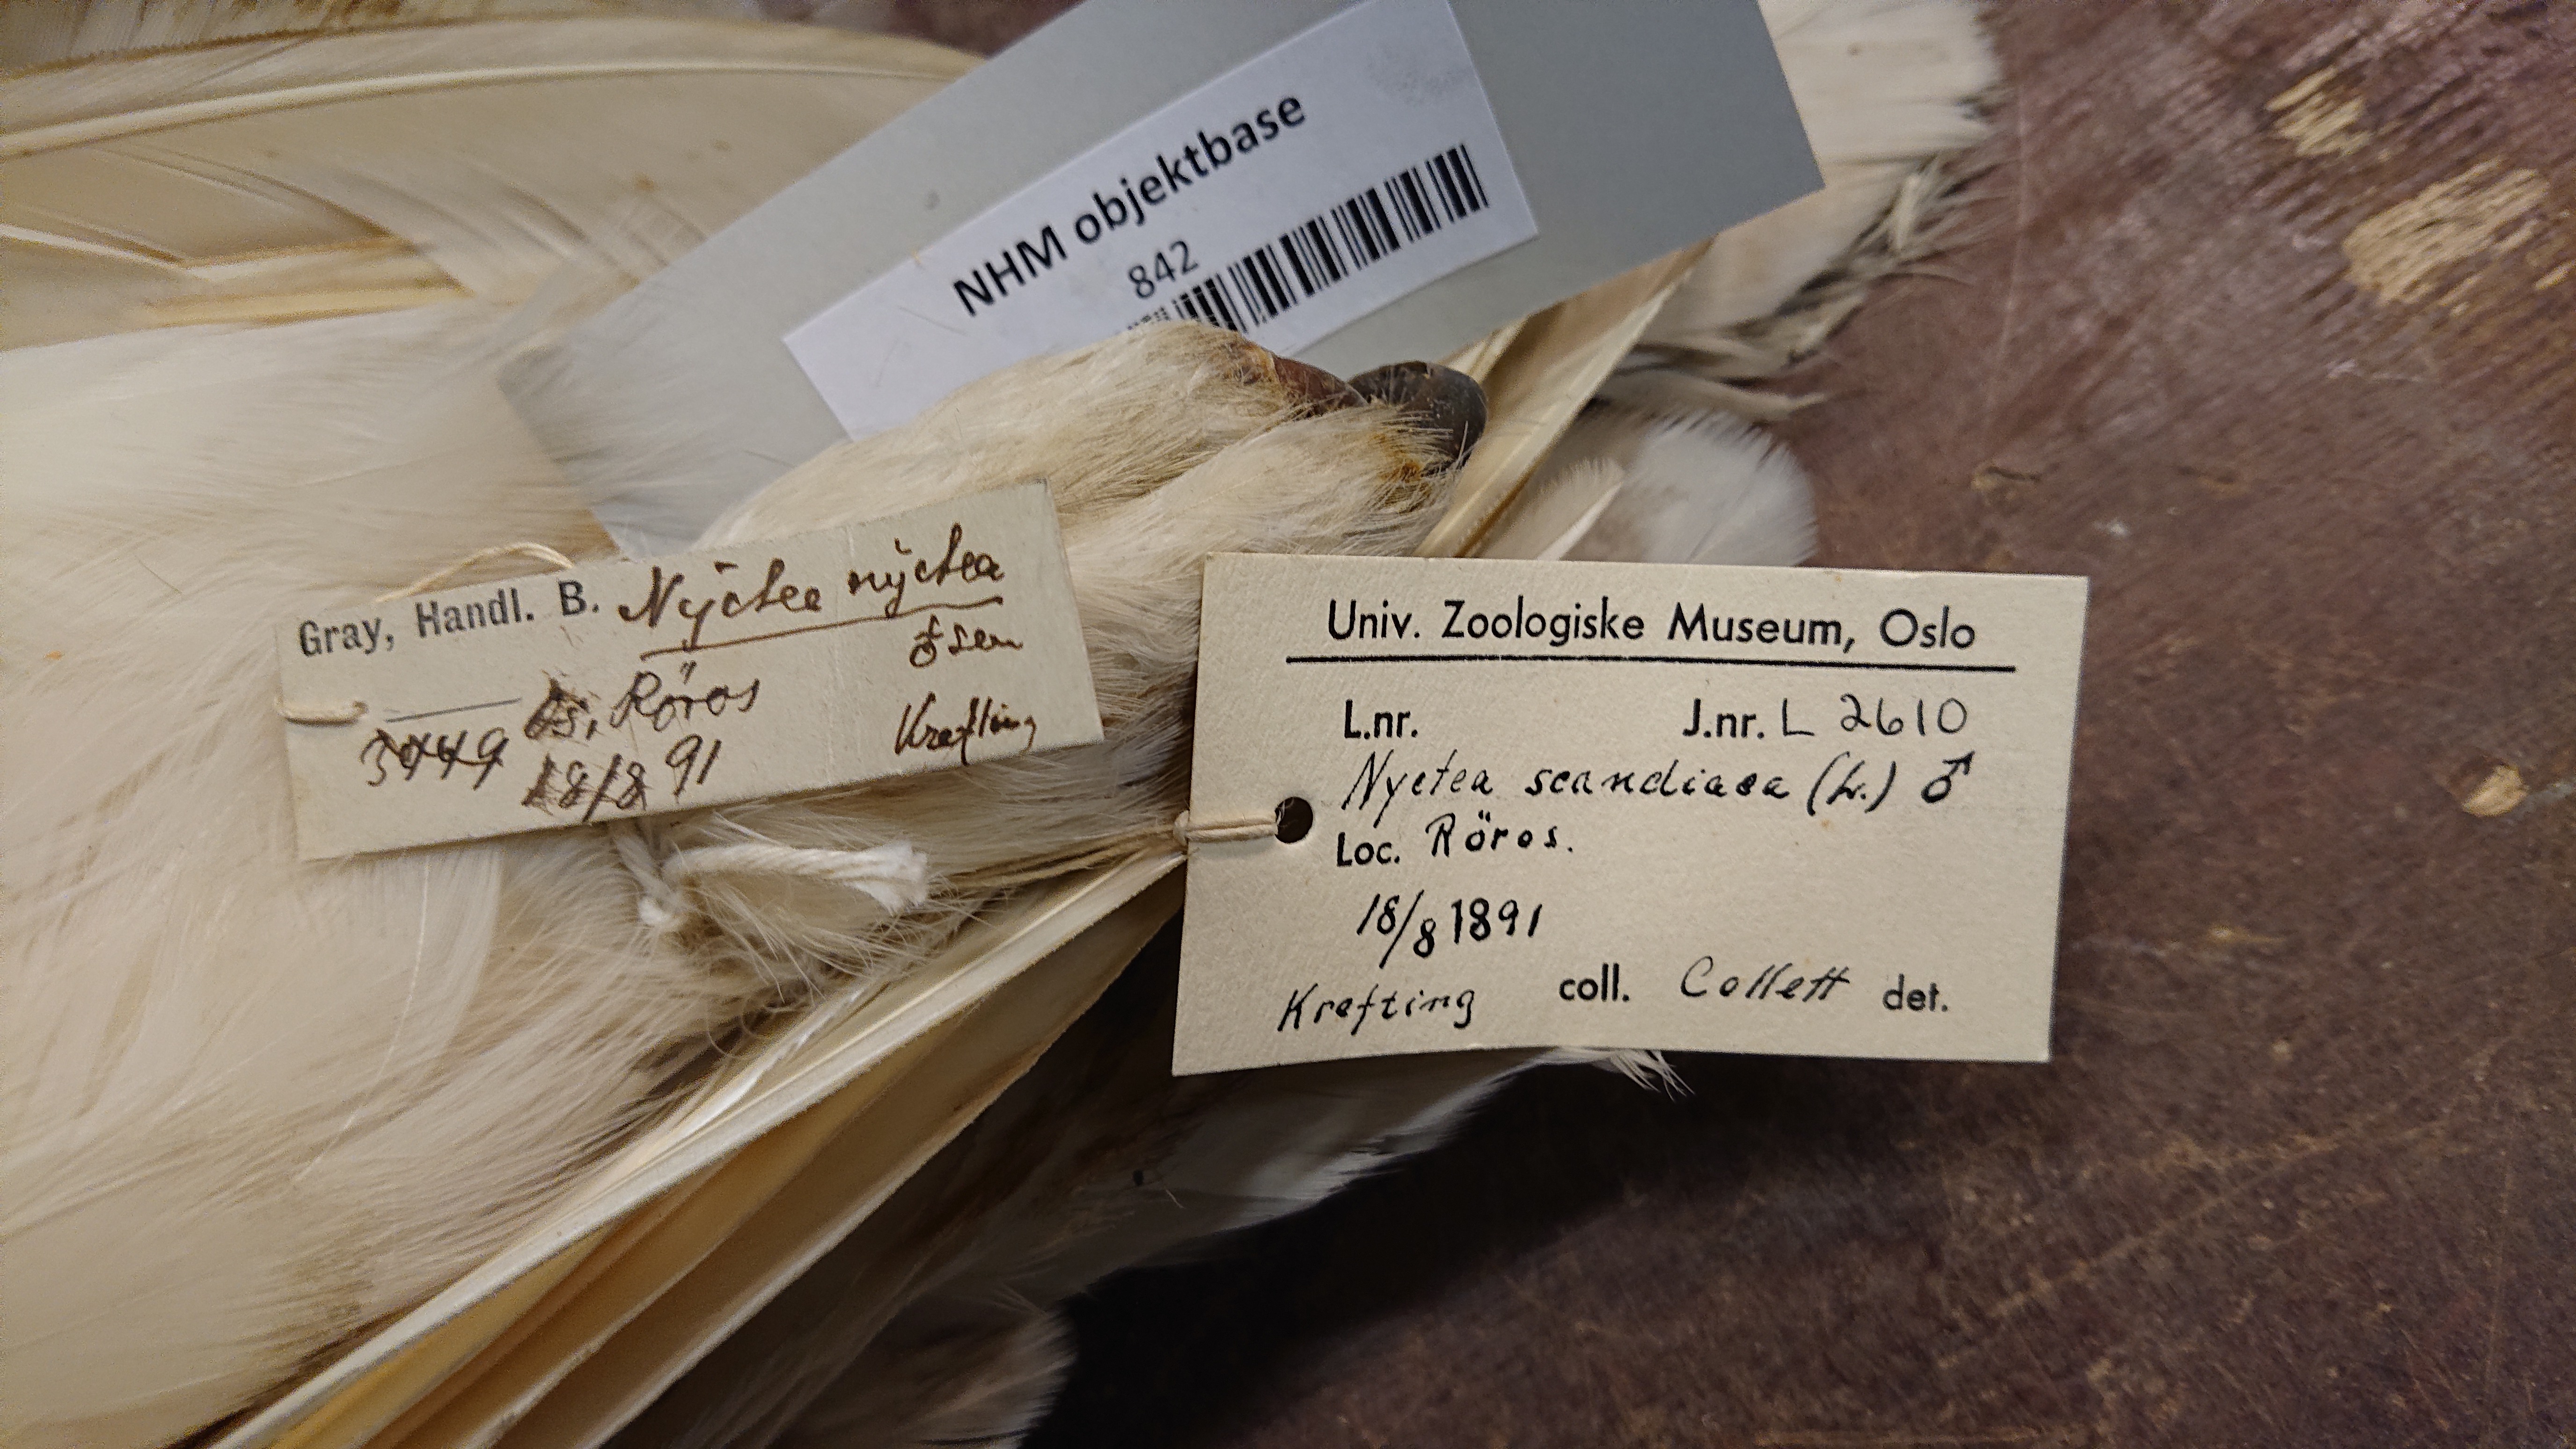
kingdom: Animalia
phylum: Chordata
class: Aves
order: Strigiformes
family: Strigidae
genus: Bubo
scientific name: Bubo scandiacus
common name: Snowy owl
